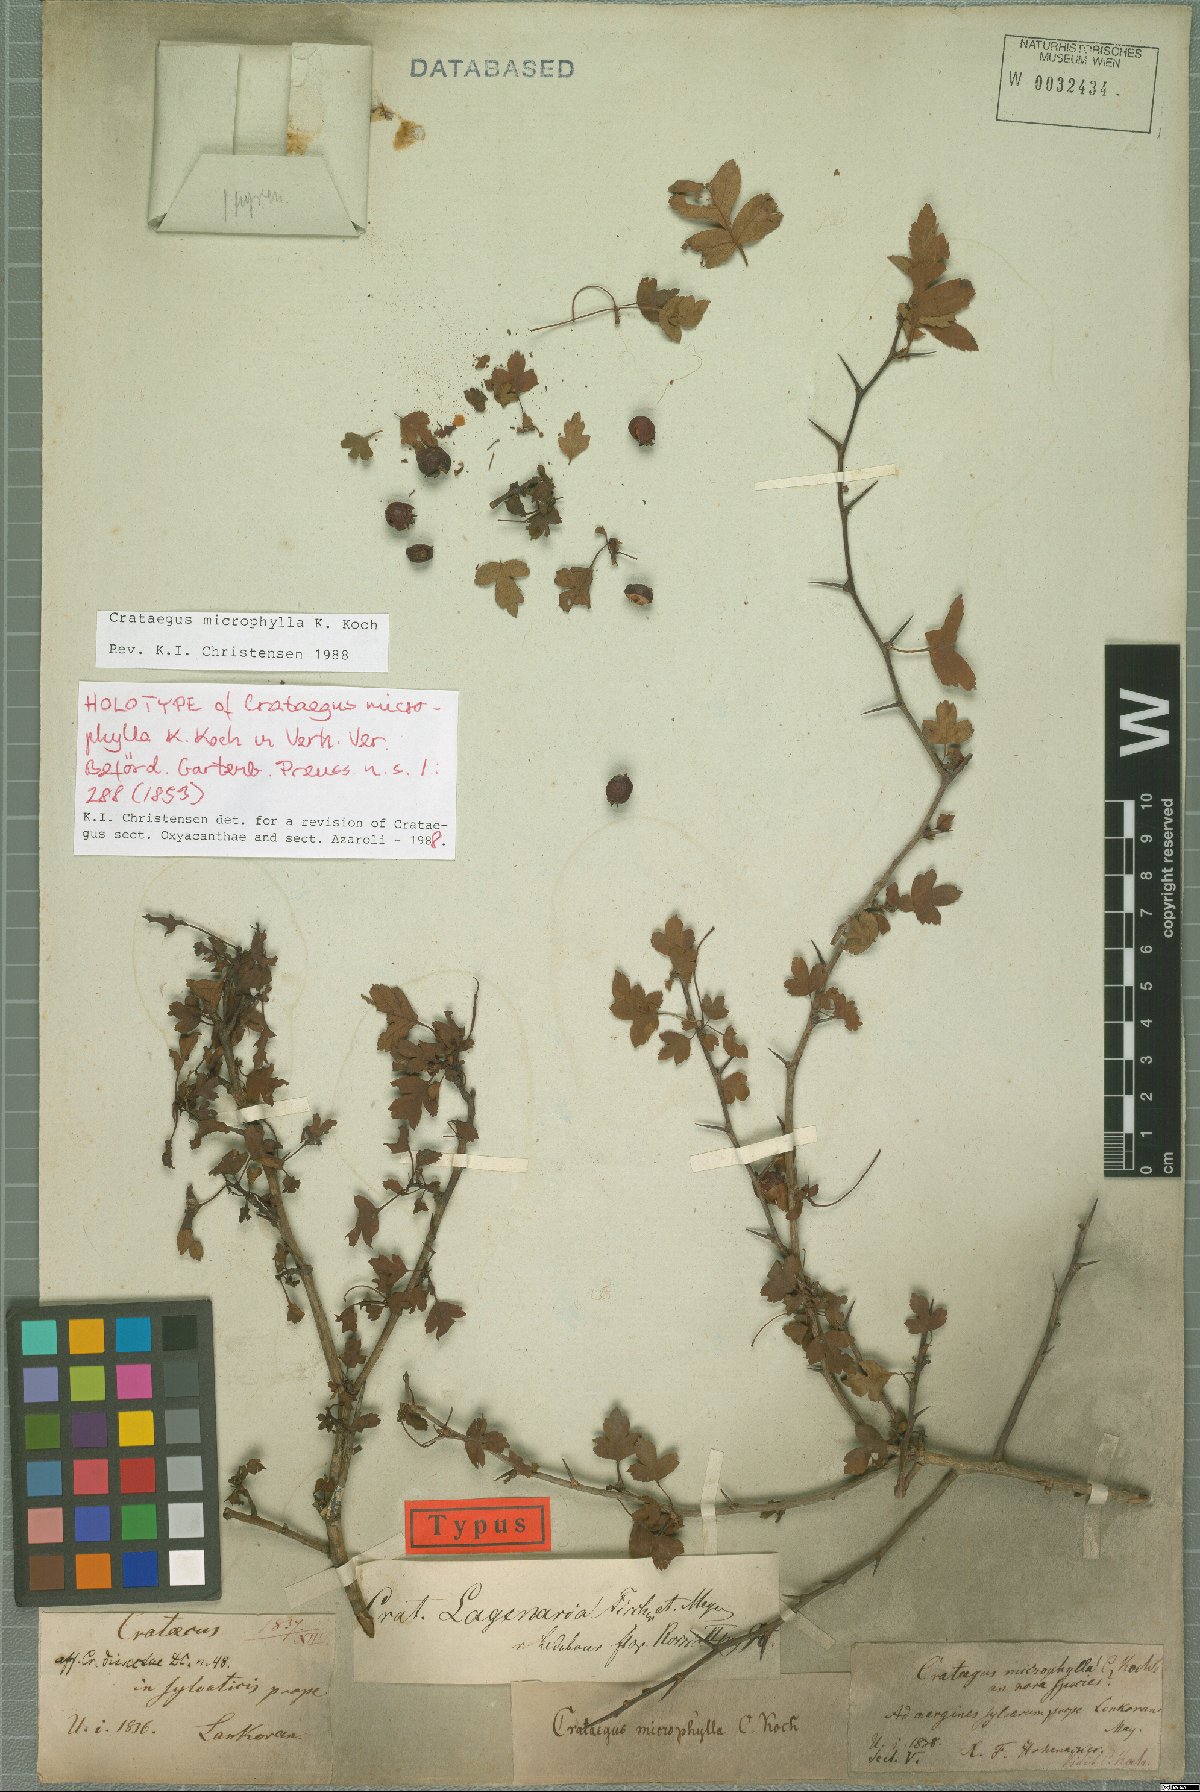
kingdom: Plantae
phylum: Tracheophyta
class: Magnoliopsida
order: Rosales
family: Rosaceae
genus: Crataegus
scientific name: Crataegus microphylla
